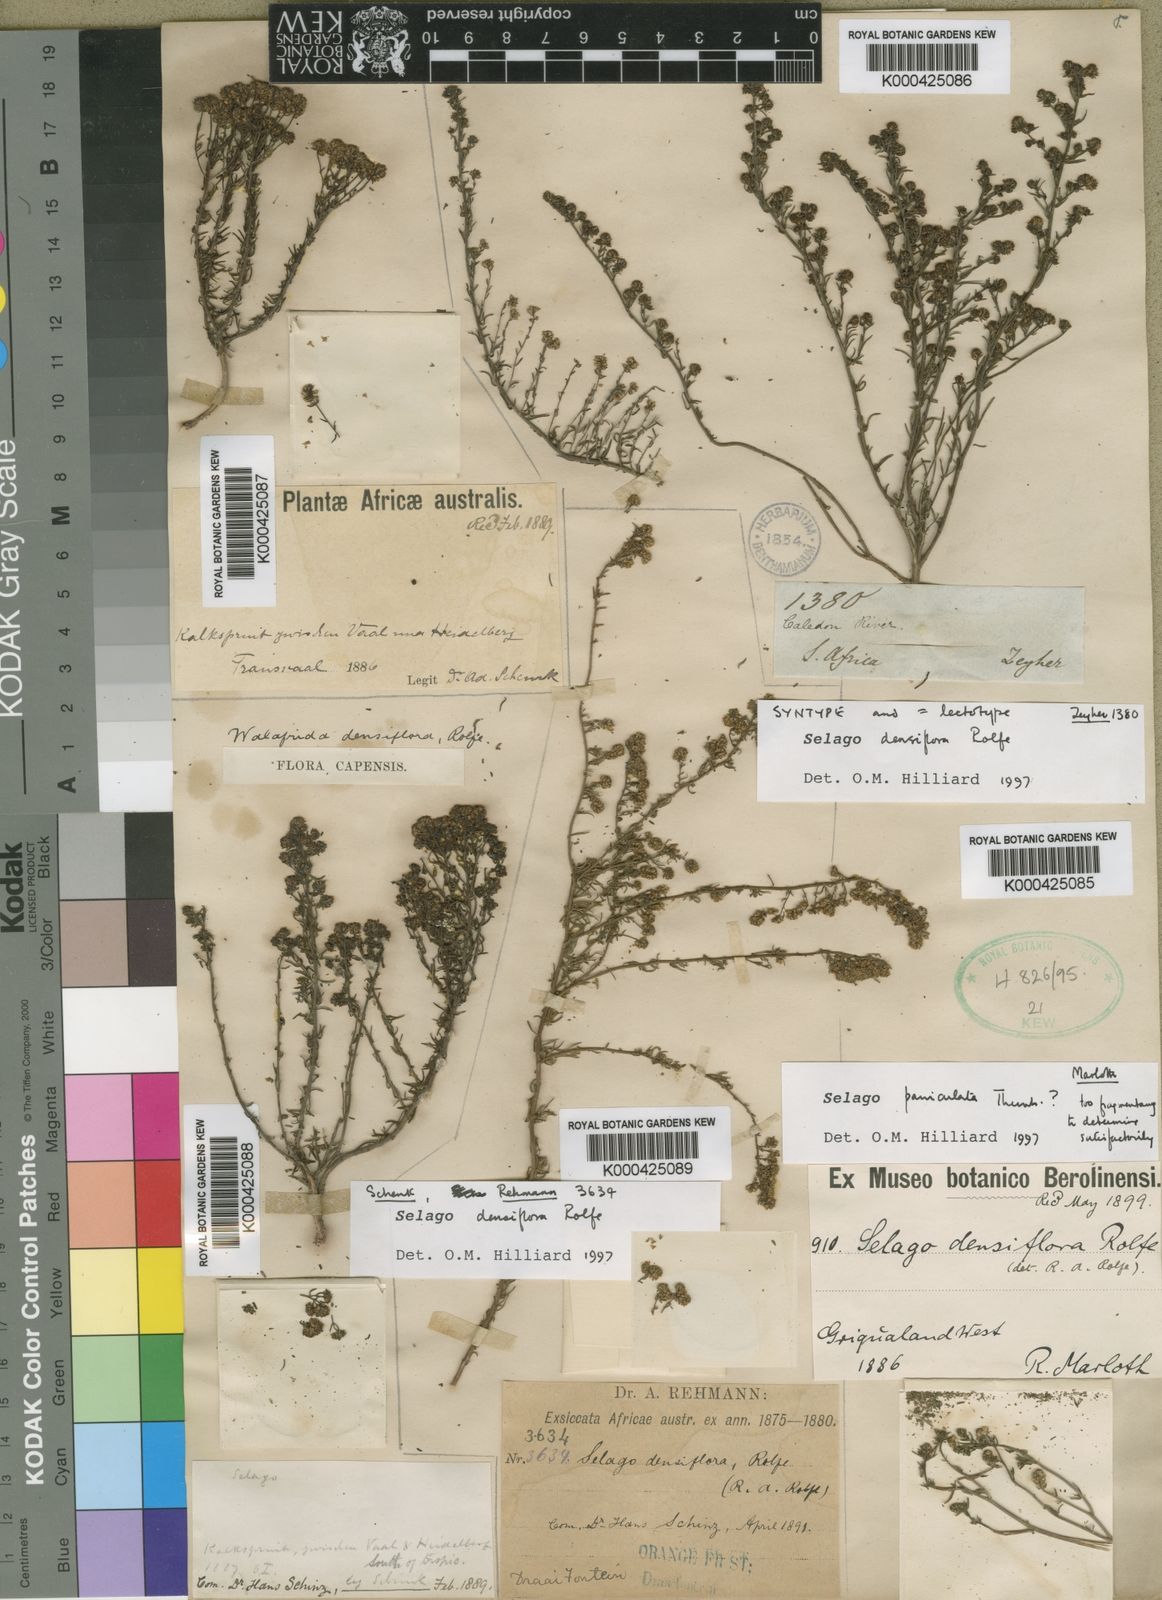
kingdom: Plantae
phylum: Tracheophyta
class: Magnoliopsida
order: Lamiales
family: Scrophulariaceae
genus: Selago
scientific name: Selago
